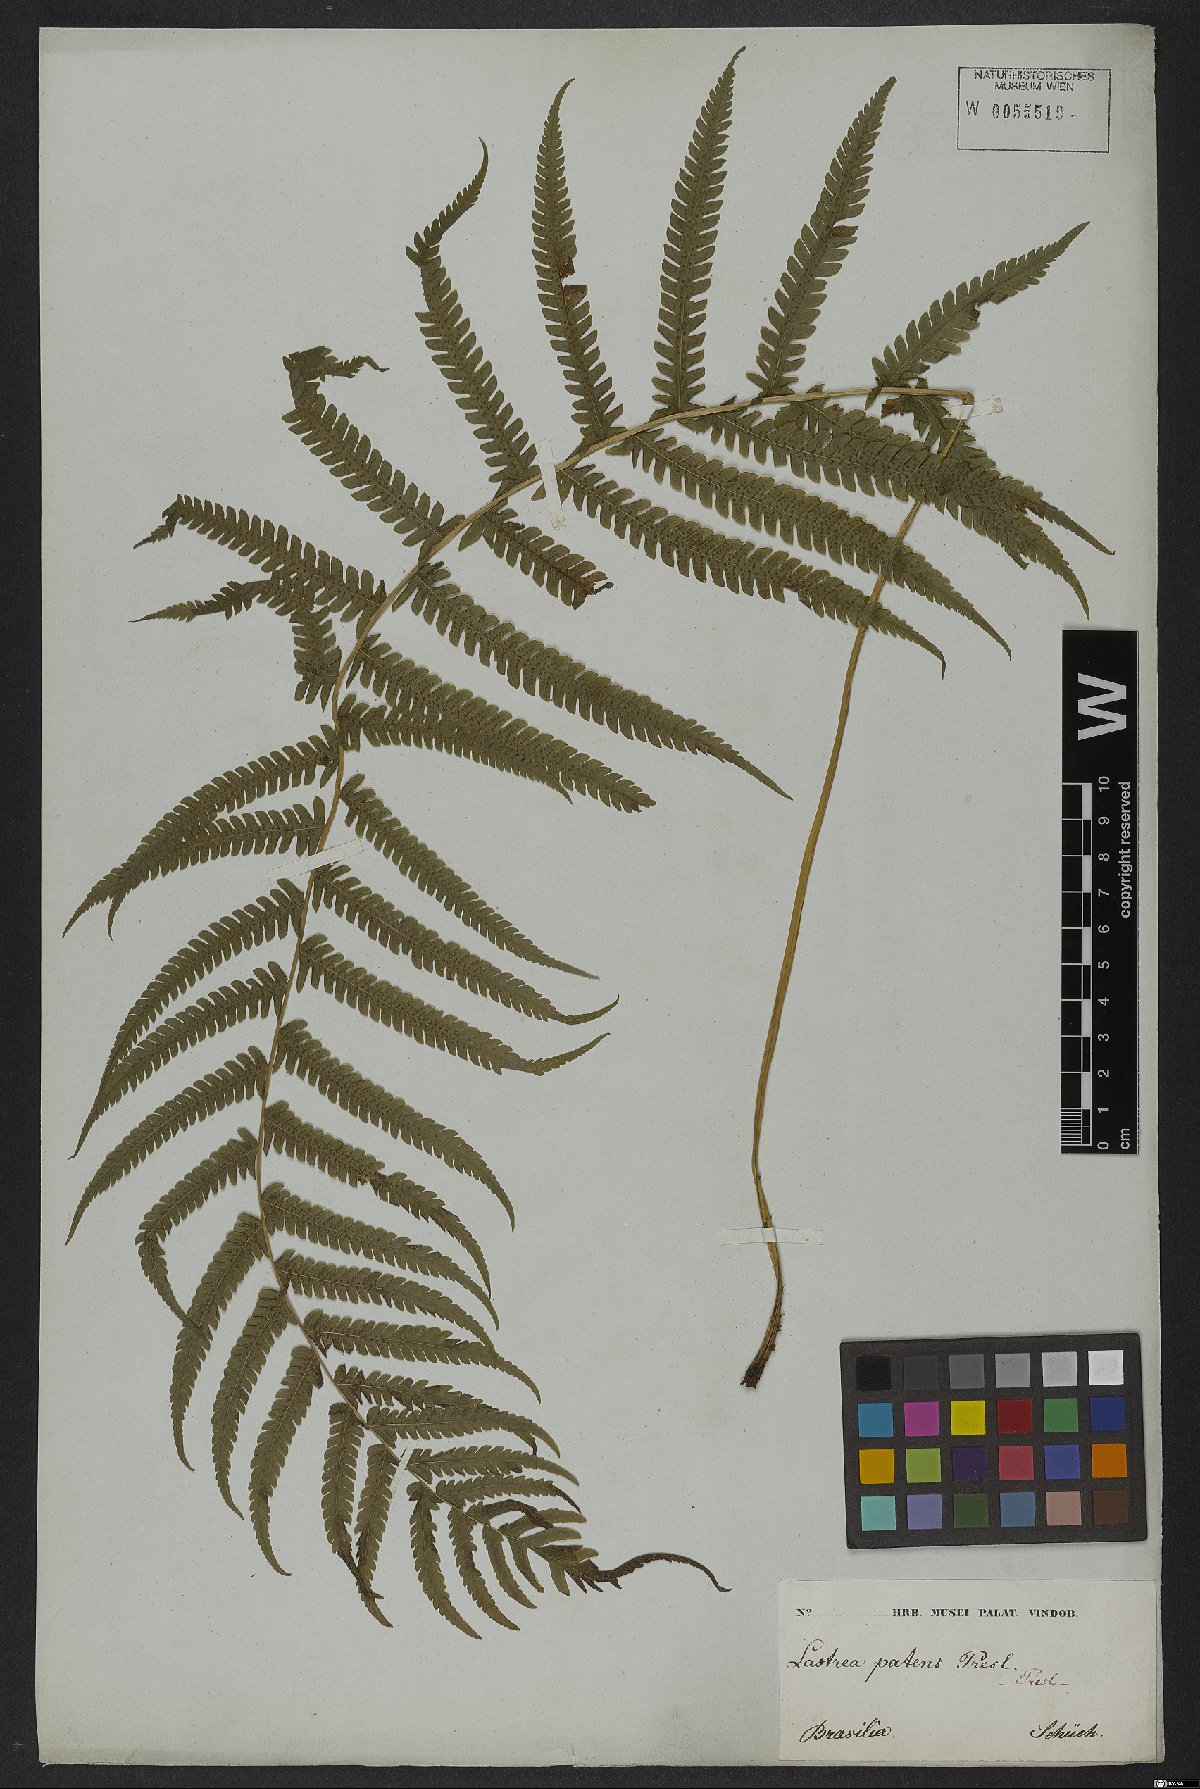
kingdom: Plantae
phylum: Tracheophyta
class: Polypodiopsida
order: Polypodiales
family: Thelypteridaceae
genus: Pelazoneuron
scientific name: Pelazoneuron patens
